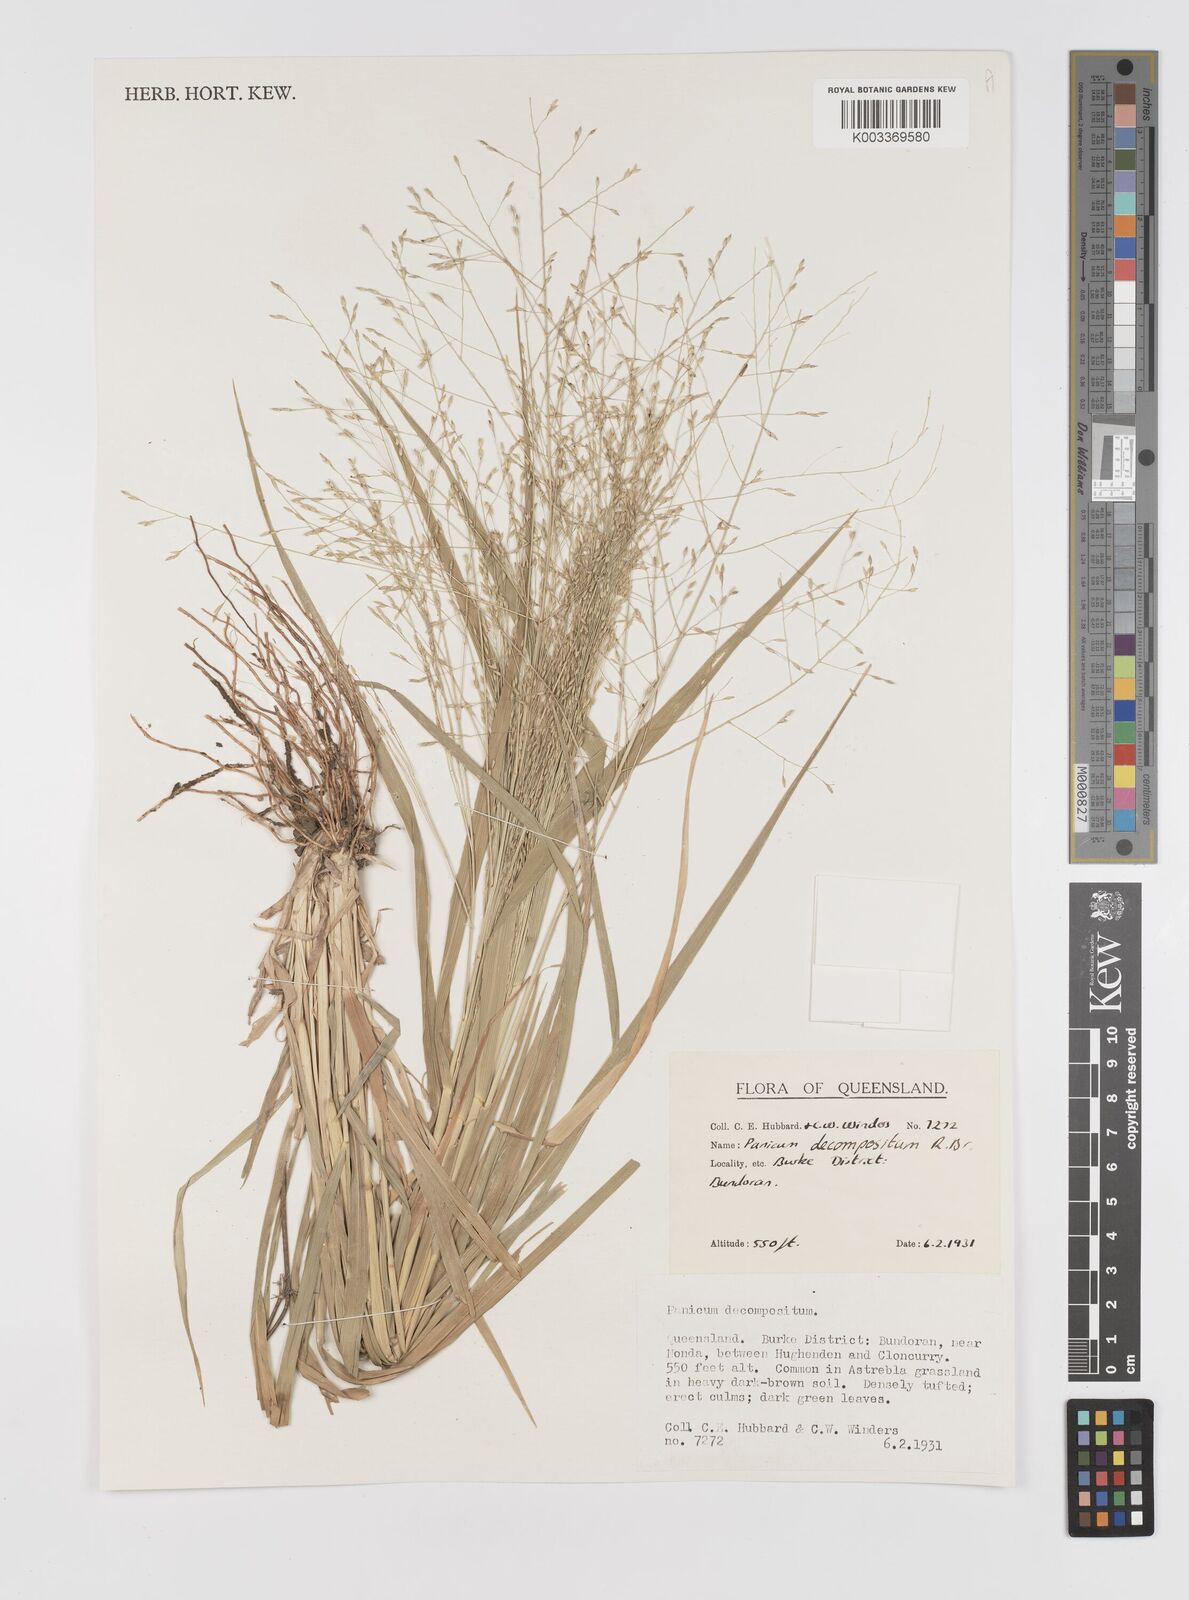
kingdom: Plantae
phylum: Tracheophyta
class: Liliopsida
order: Poales
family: Poaceae
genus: Panicum
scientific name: Panicum decompositum
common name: Australian millet
